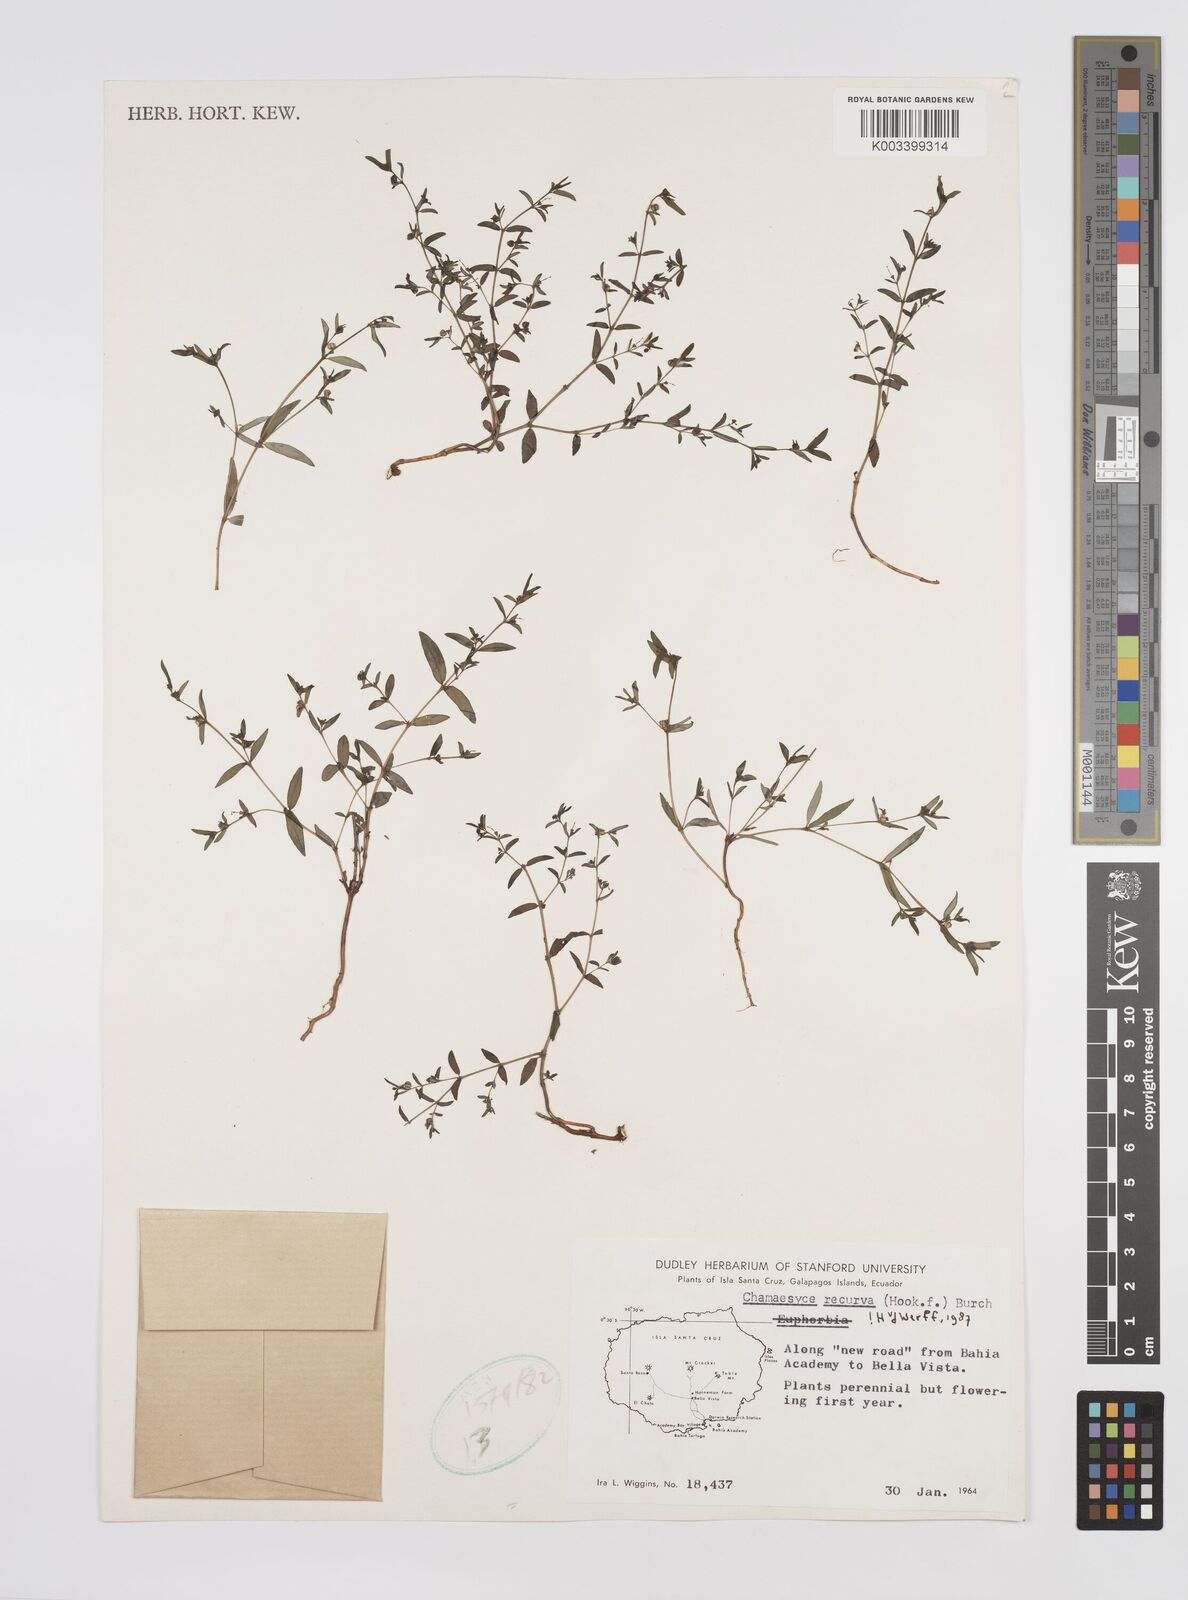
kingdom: Plantae
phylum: Tracheophyta
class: Magnoliopsida
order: Malpighiales
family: Euphorbiaceae
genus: Euphorbia
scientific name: Euphorbia recurva
